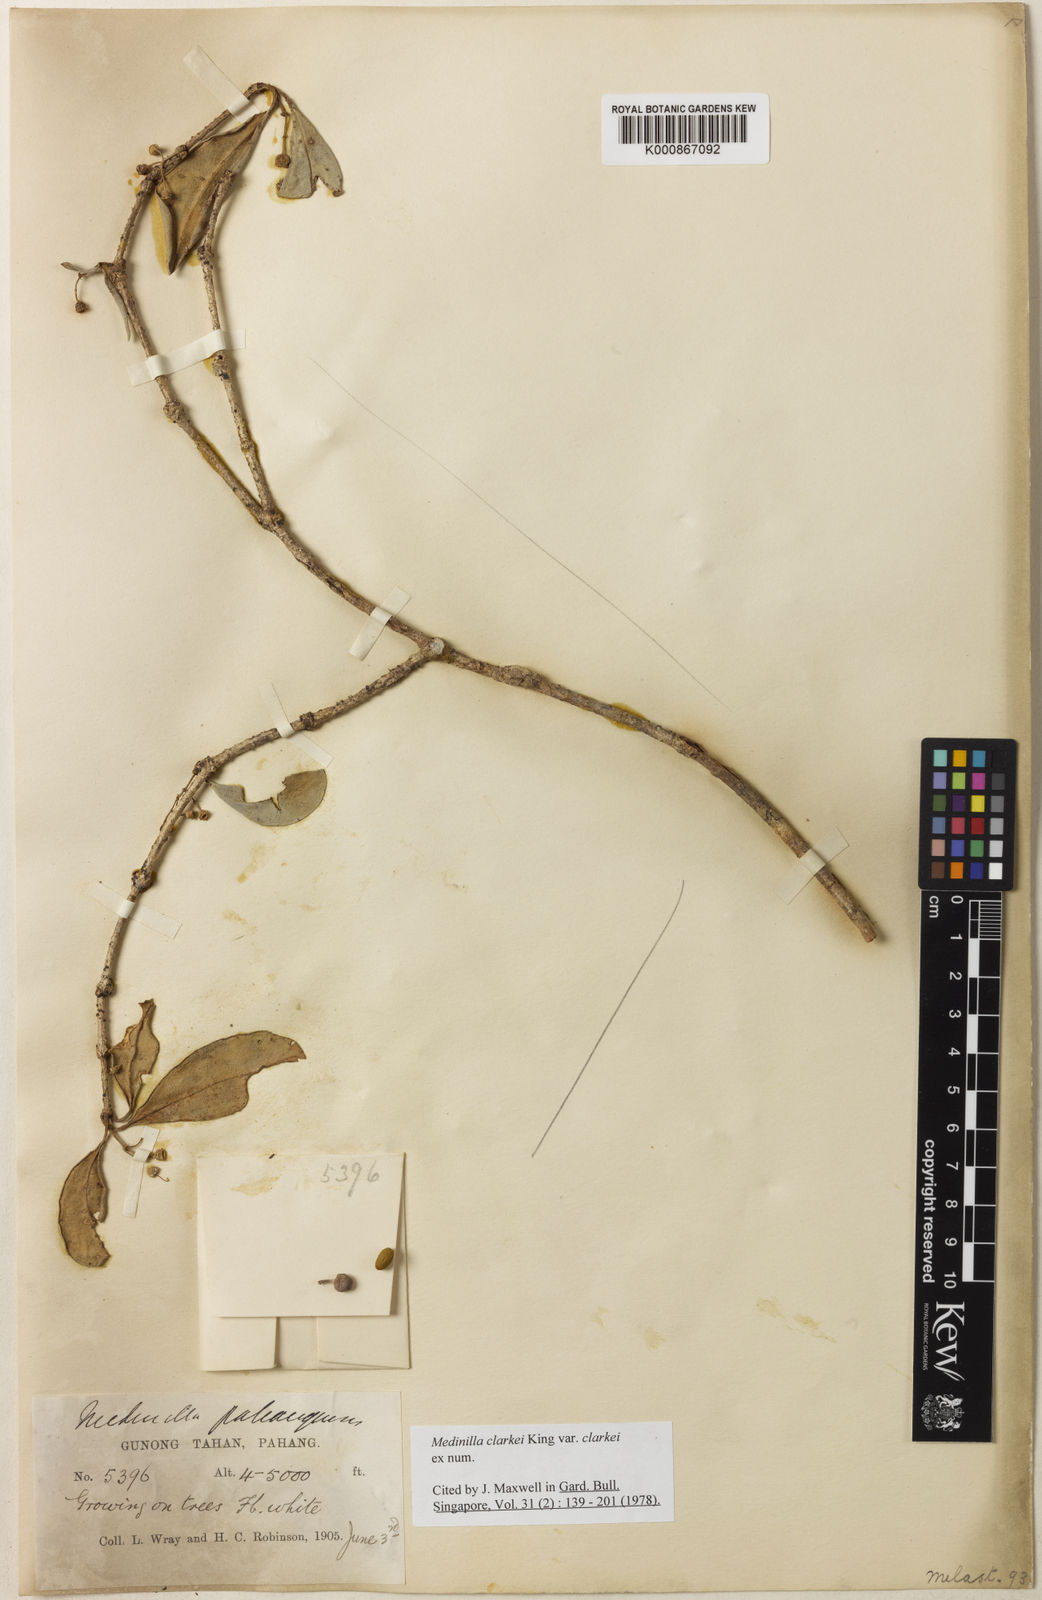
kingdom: Plantae
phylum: Tracheophyta
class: Magnoliopsida
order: Myrtales
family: Melastomataceae
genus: Medinilla
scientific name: Medinilla clarkei
